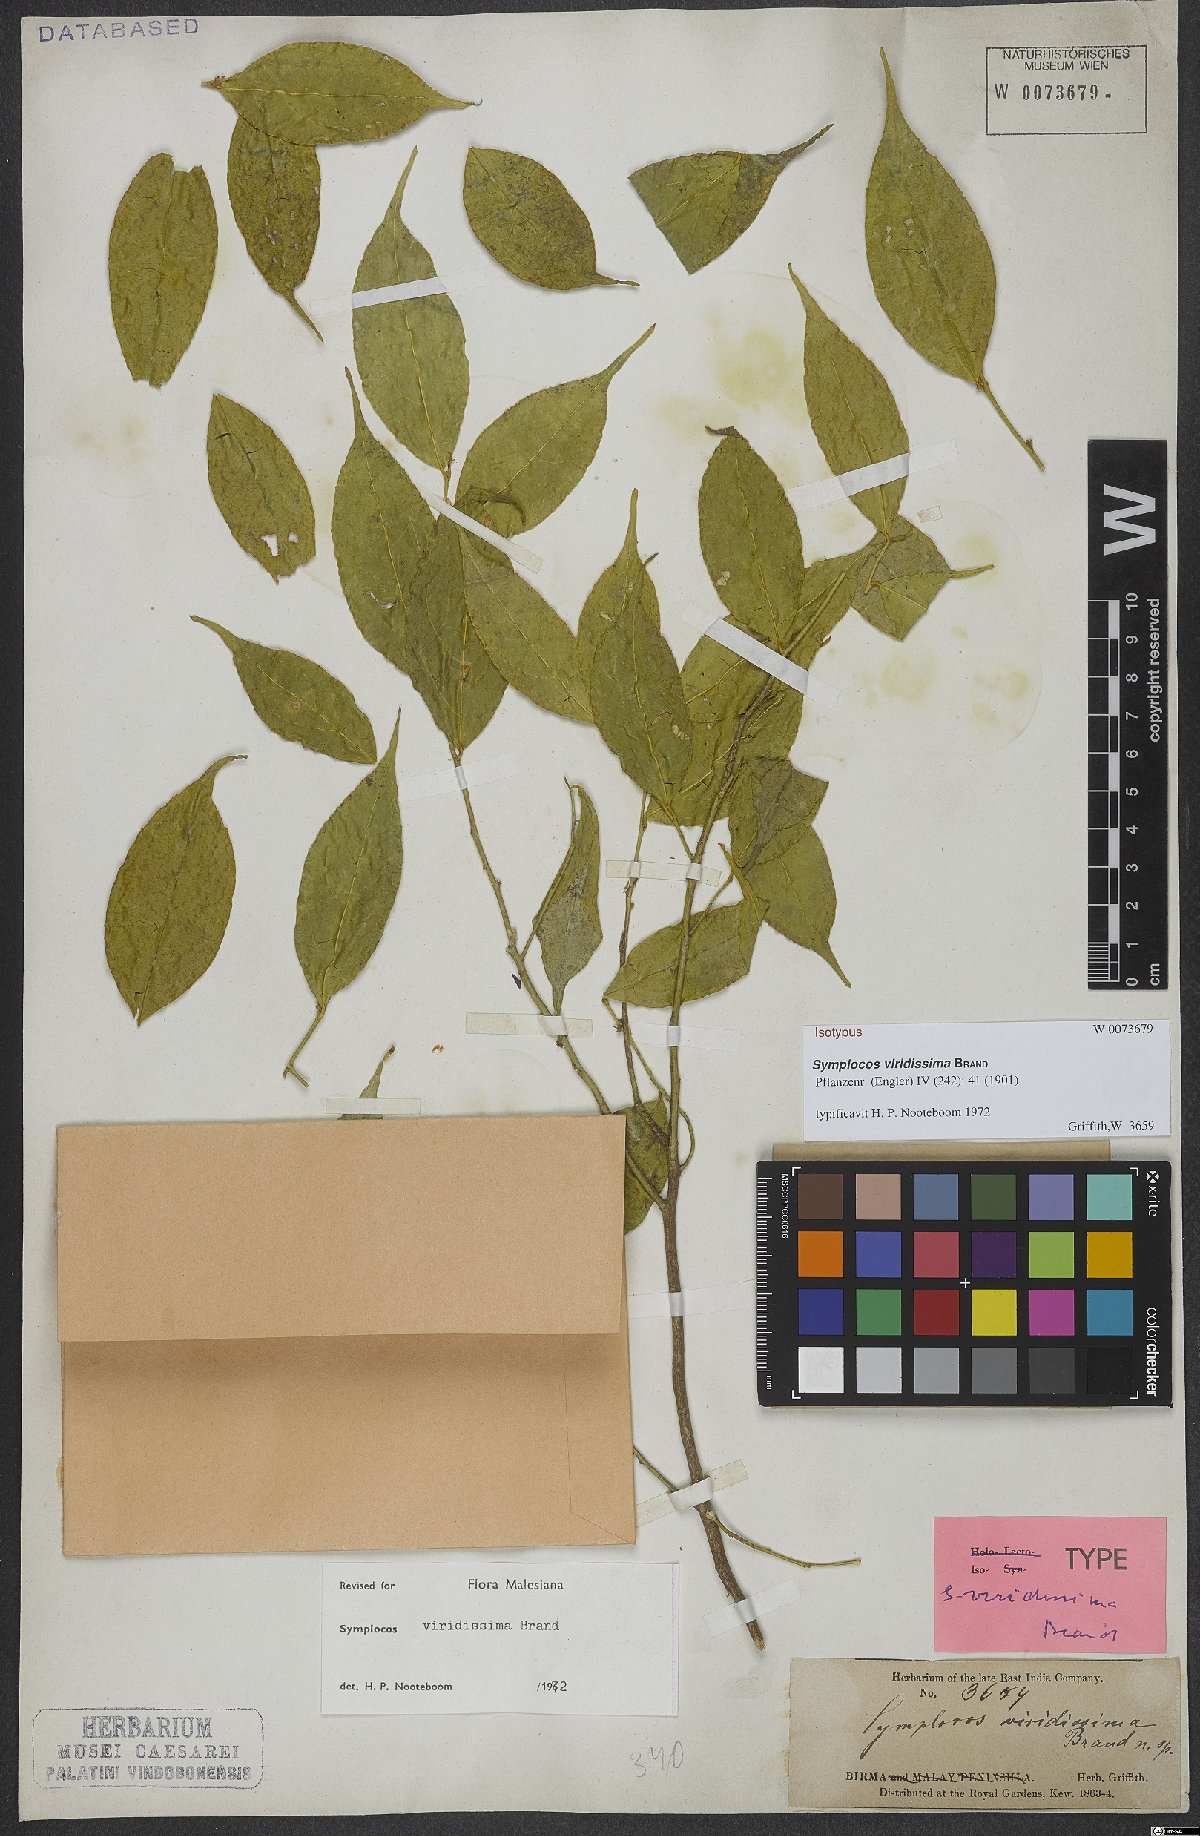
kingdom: Plantae
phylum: Tracheophyta
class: Magnoliopsida
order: Ericales
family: Symplocaceae
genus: Symplocos
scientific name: Symplocos viridissima
